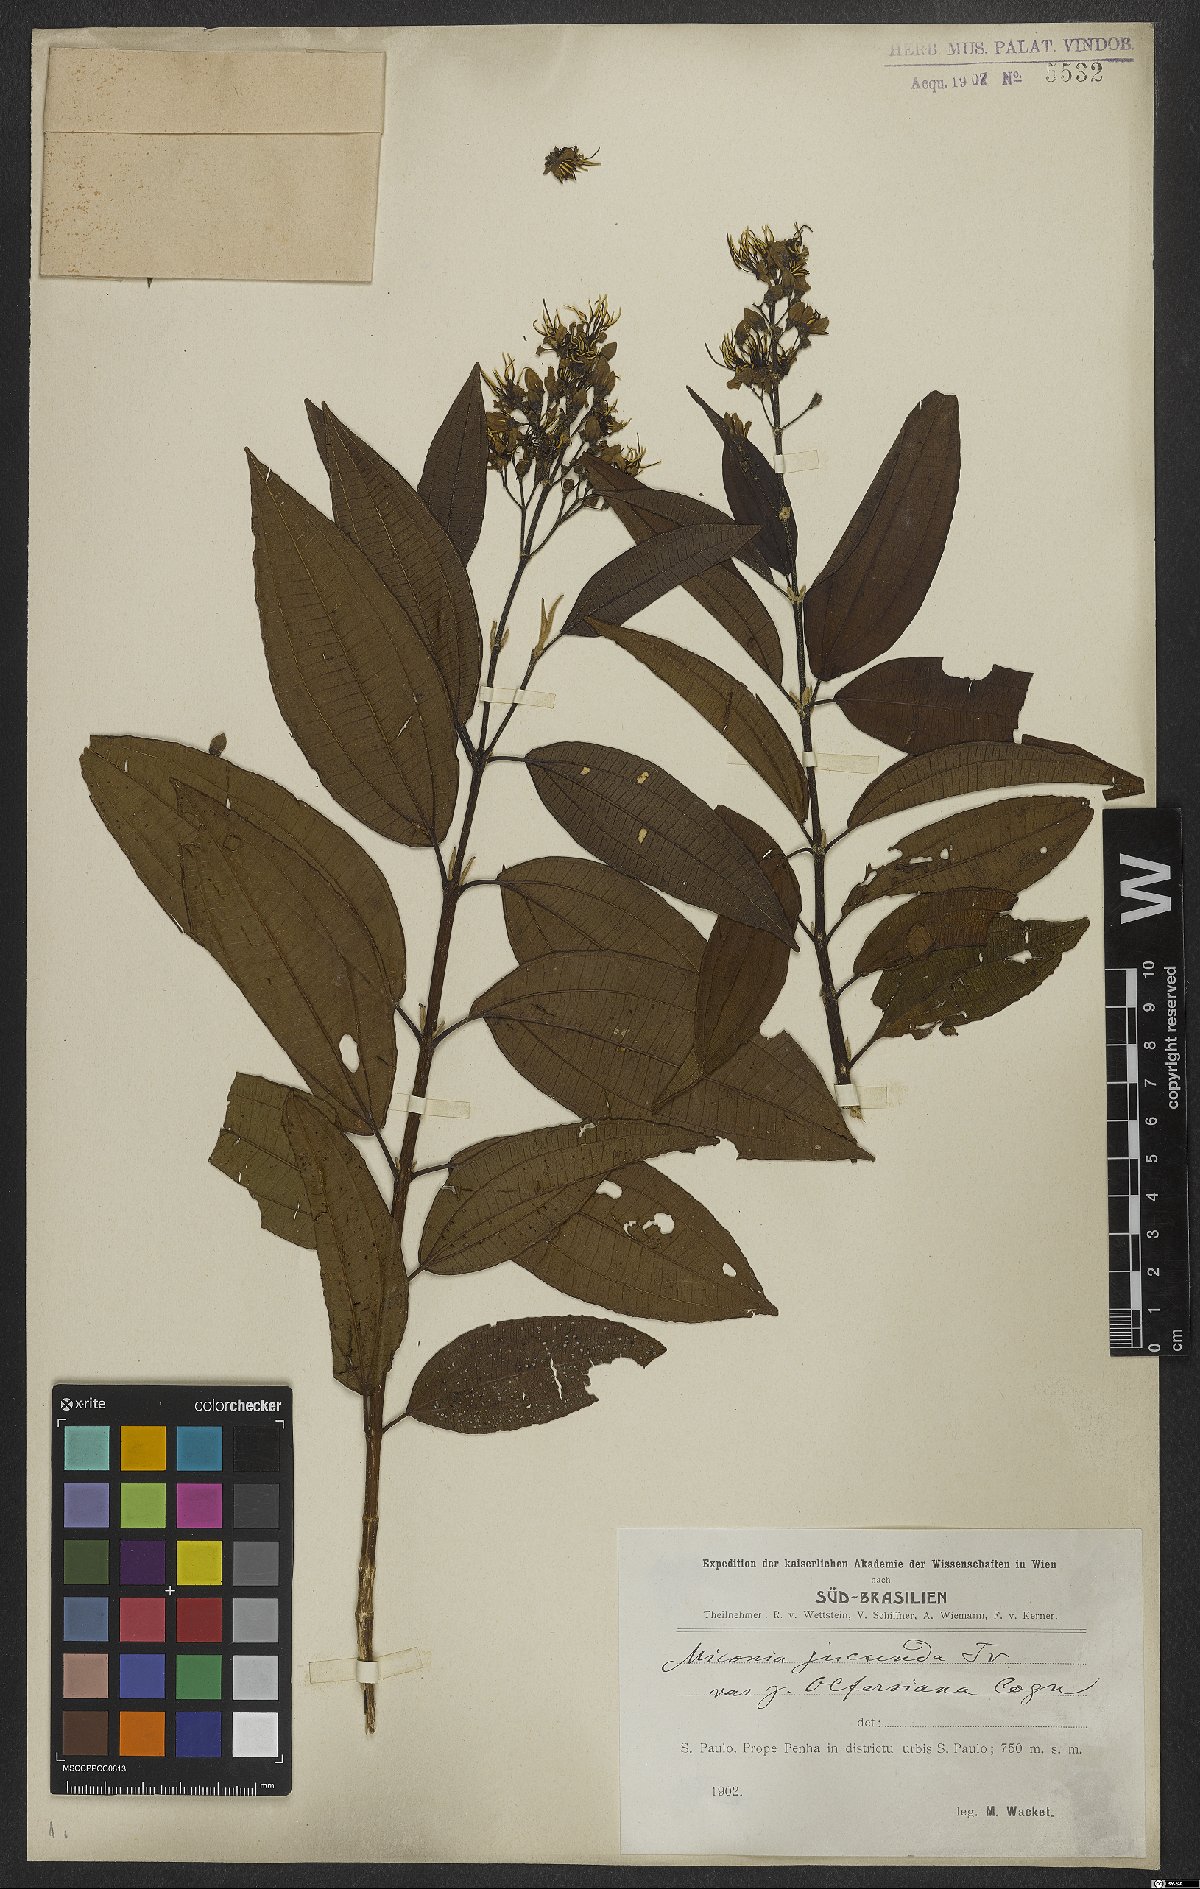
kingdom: Plantae
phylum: Tracheophyta
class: Magnoliopsida
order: Myrtales
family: Melastomataceae
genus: Miconia
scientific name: Miconia jucunda
